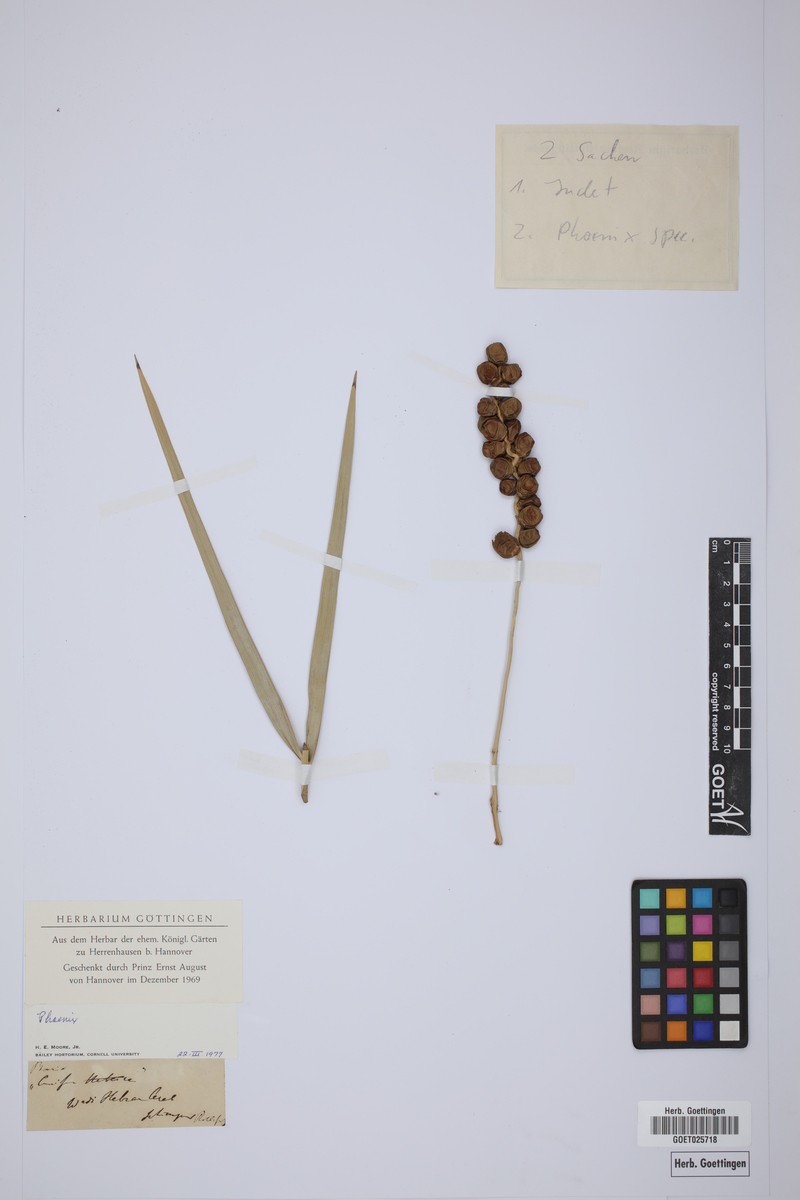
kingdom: Plantae
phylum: Tracheophyta
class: Liliopsida
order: Arecales
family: Arecaceae
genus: Phoenix
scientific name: Phoenix
